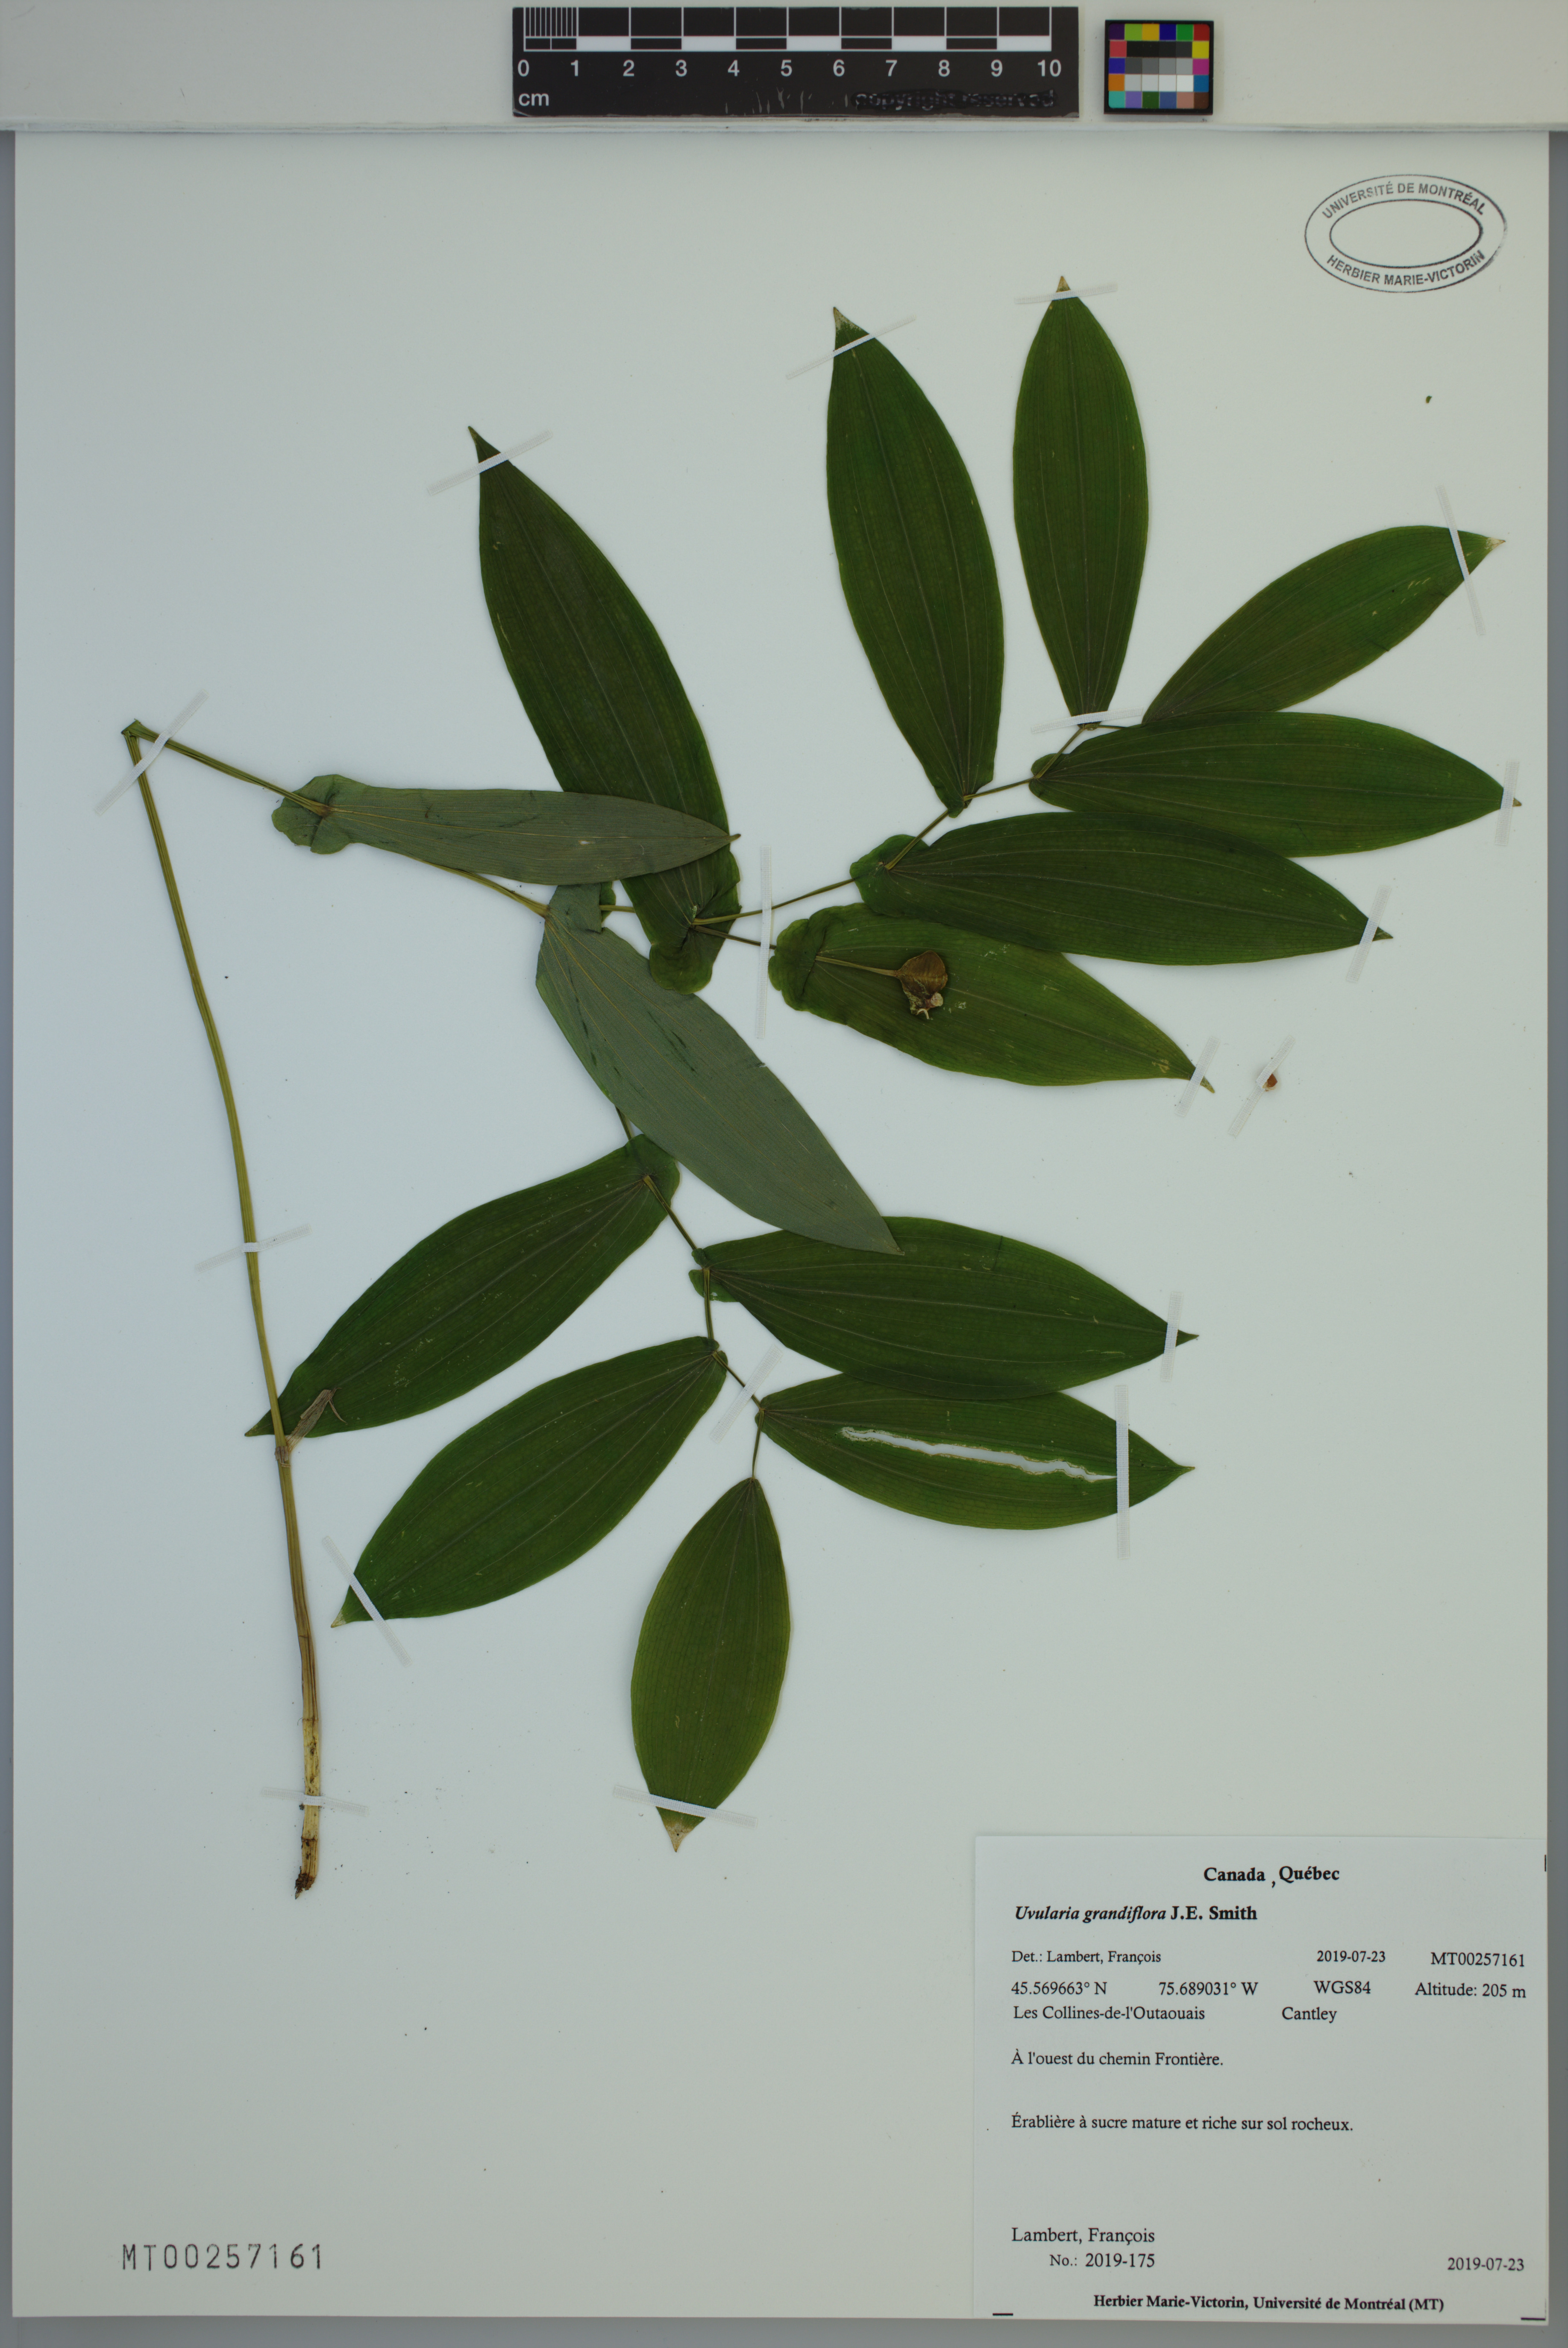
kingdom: Plantae
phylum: Tracheophyta
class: Liliopsida
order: Liliales
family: Colchicaceae
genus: Uvularia
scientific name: Uvularia grandiflora
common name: Bellwort
